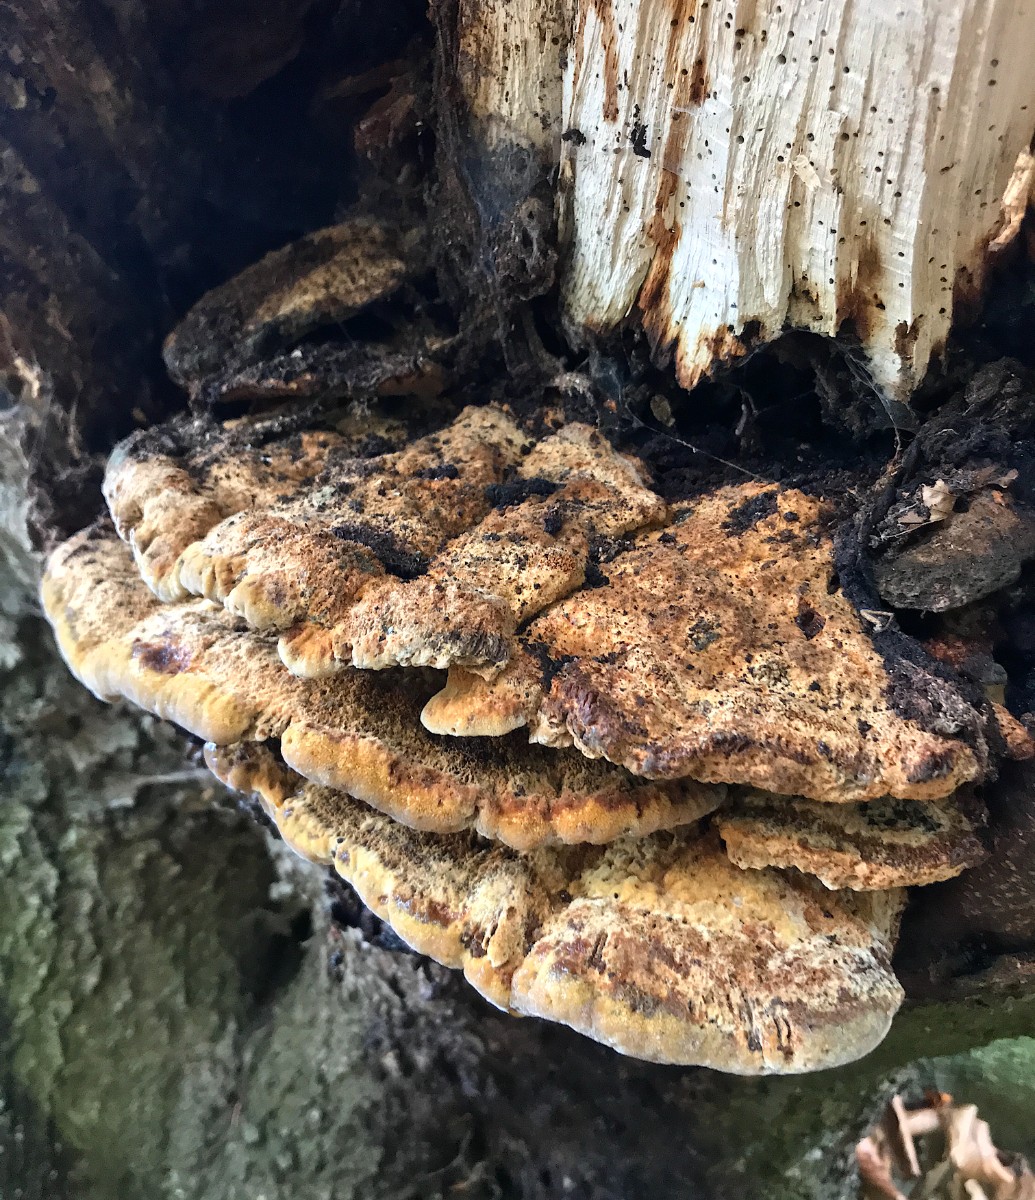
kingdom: Fungi
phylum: Basidiomycota
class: Agaricomycetes
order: Hymenochaetales
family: Hymenochaetaceae
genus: Inonotus
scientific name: Inonotus cuticularis
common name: kroghåret spejlporesvamp
